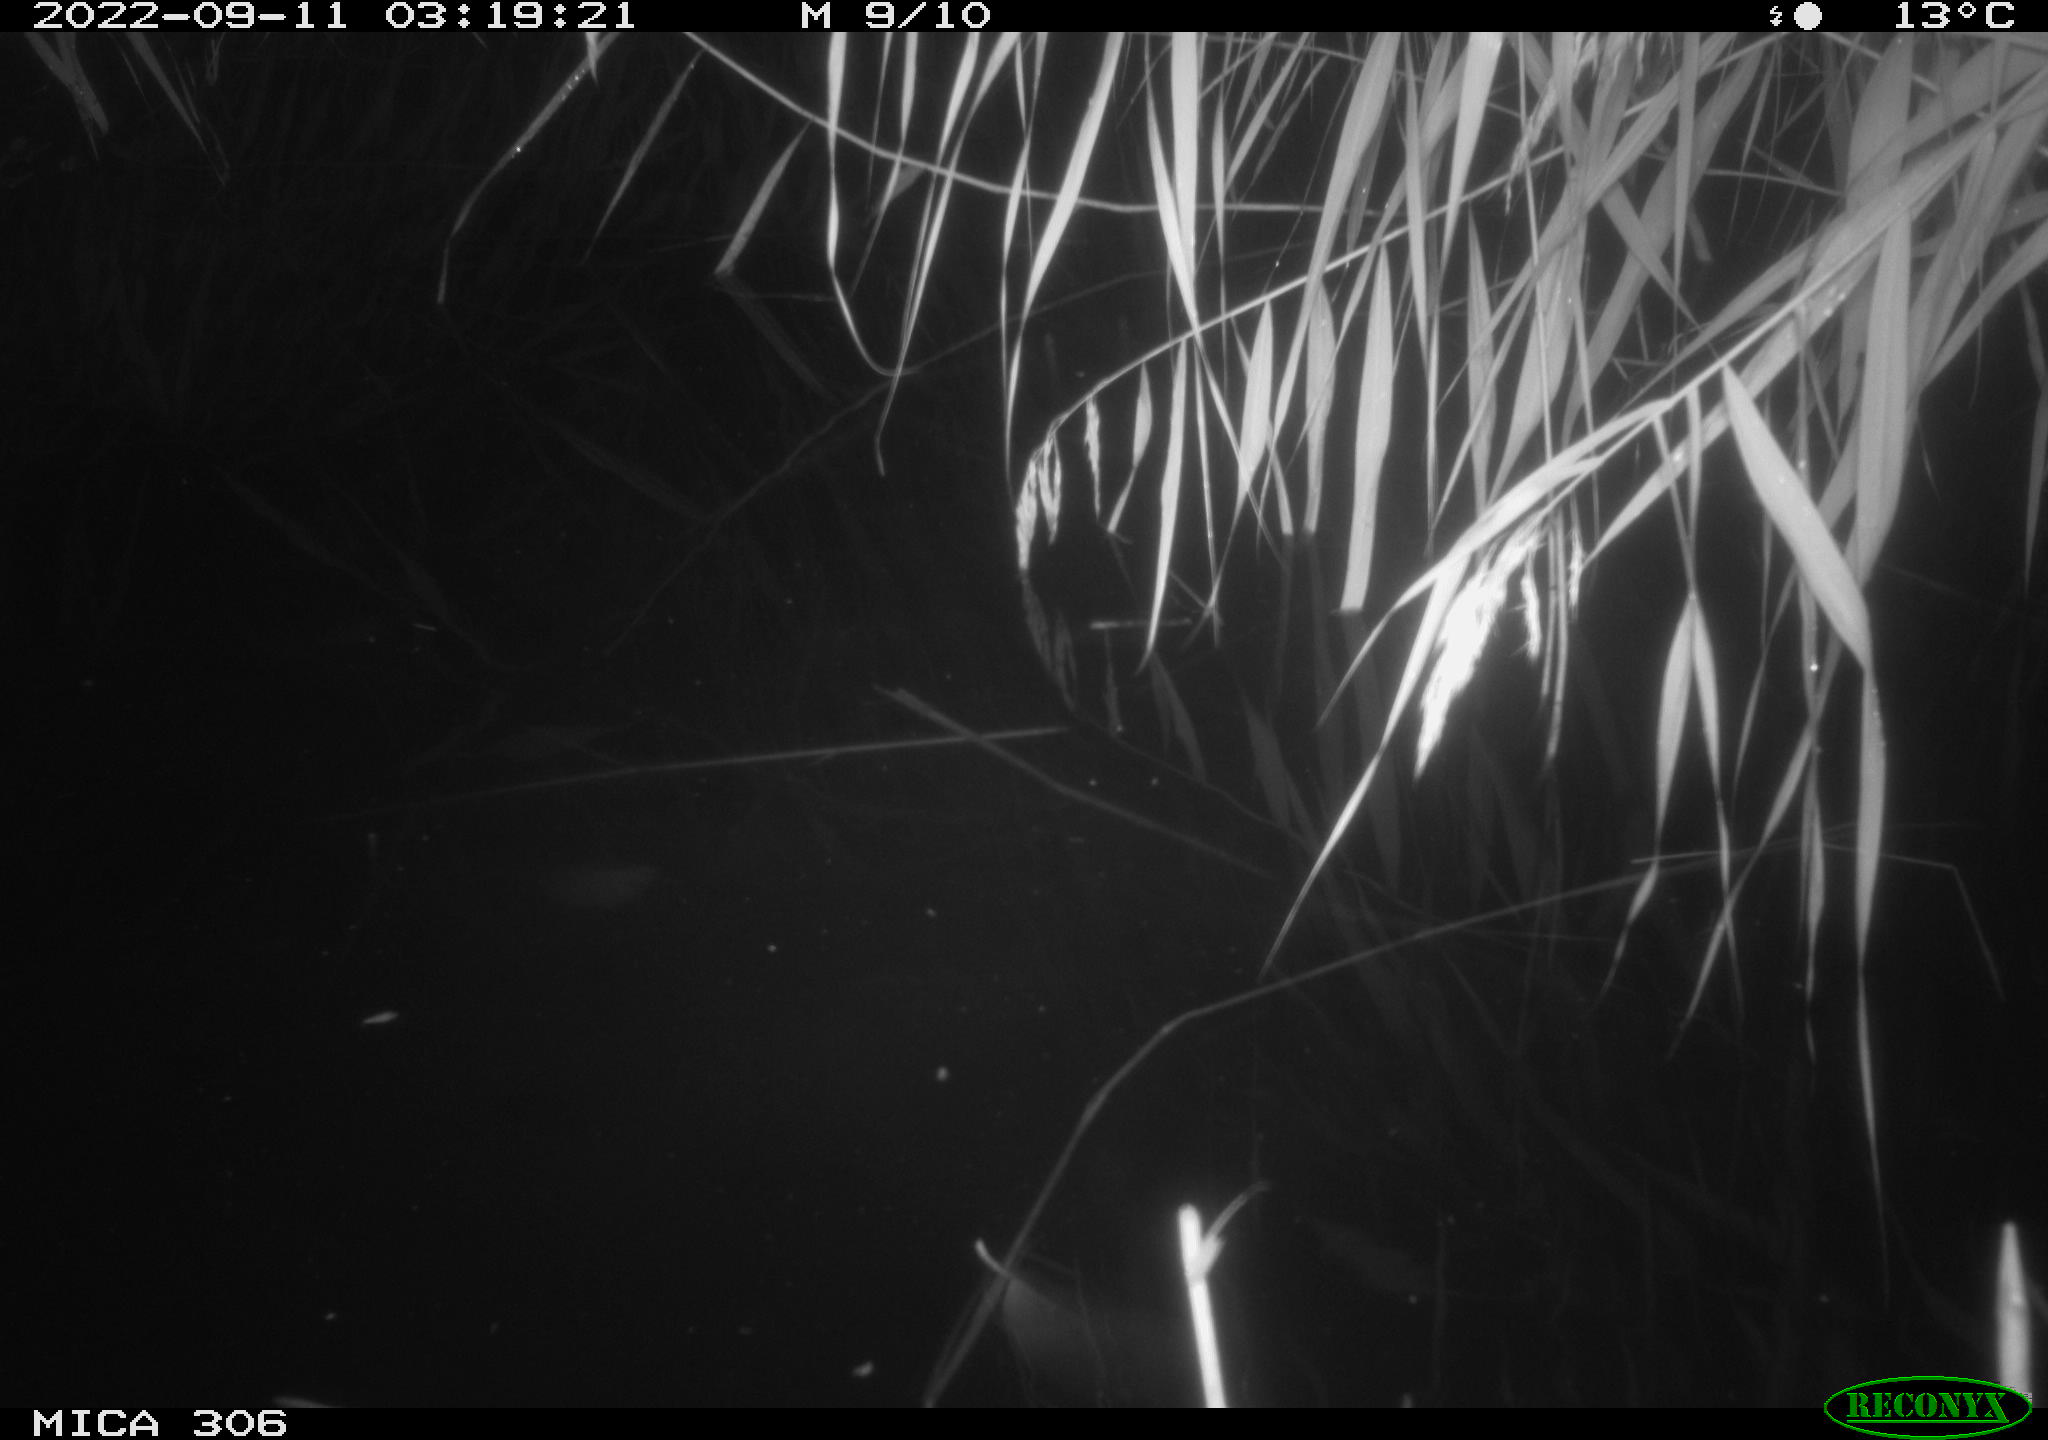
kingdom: Animalia
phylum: Chordata
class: Mammalia
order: Rodentia
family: Muridae
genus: Rattus
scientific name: Rattus norvegicus
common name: Brown rat
